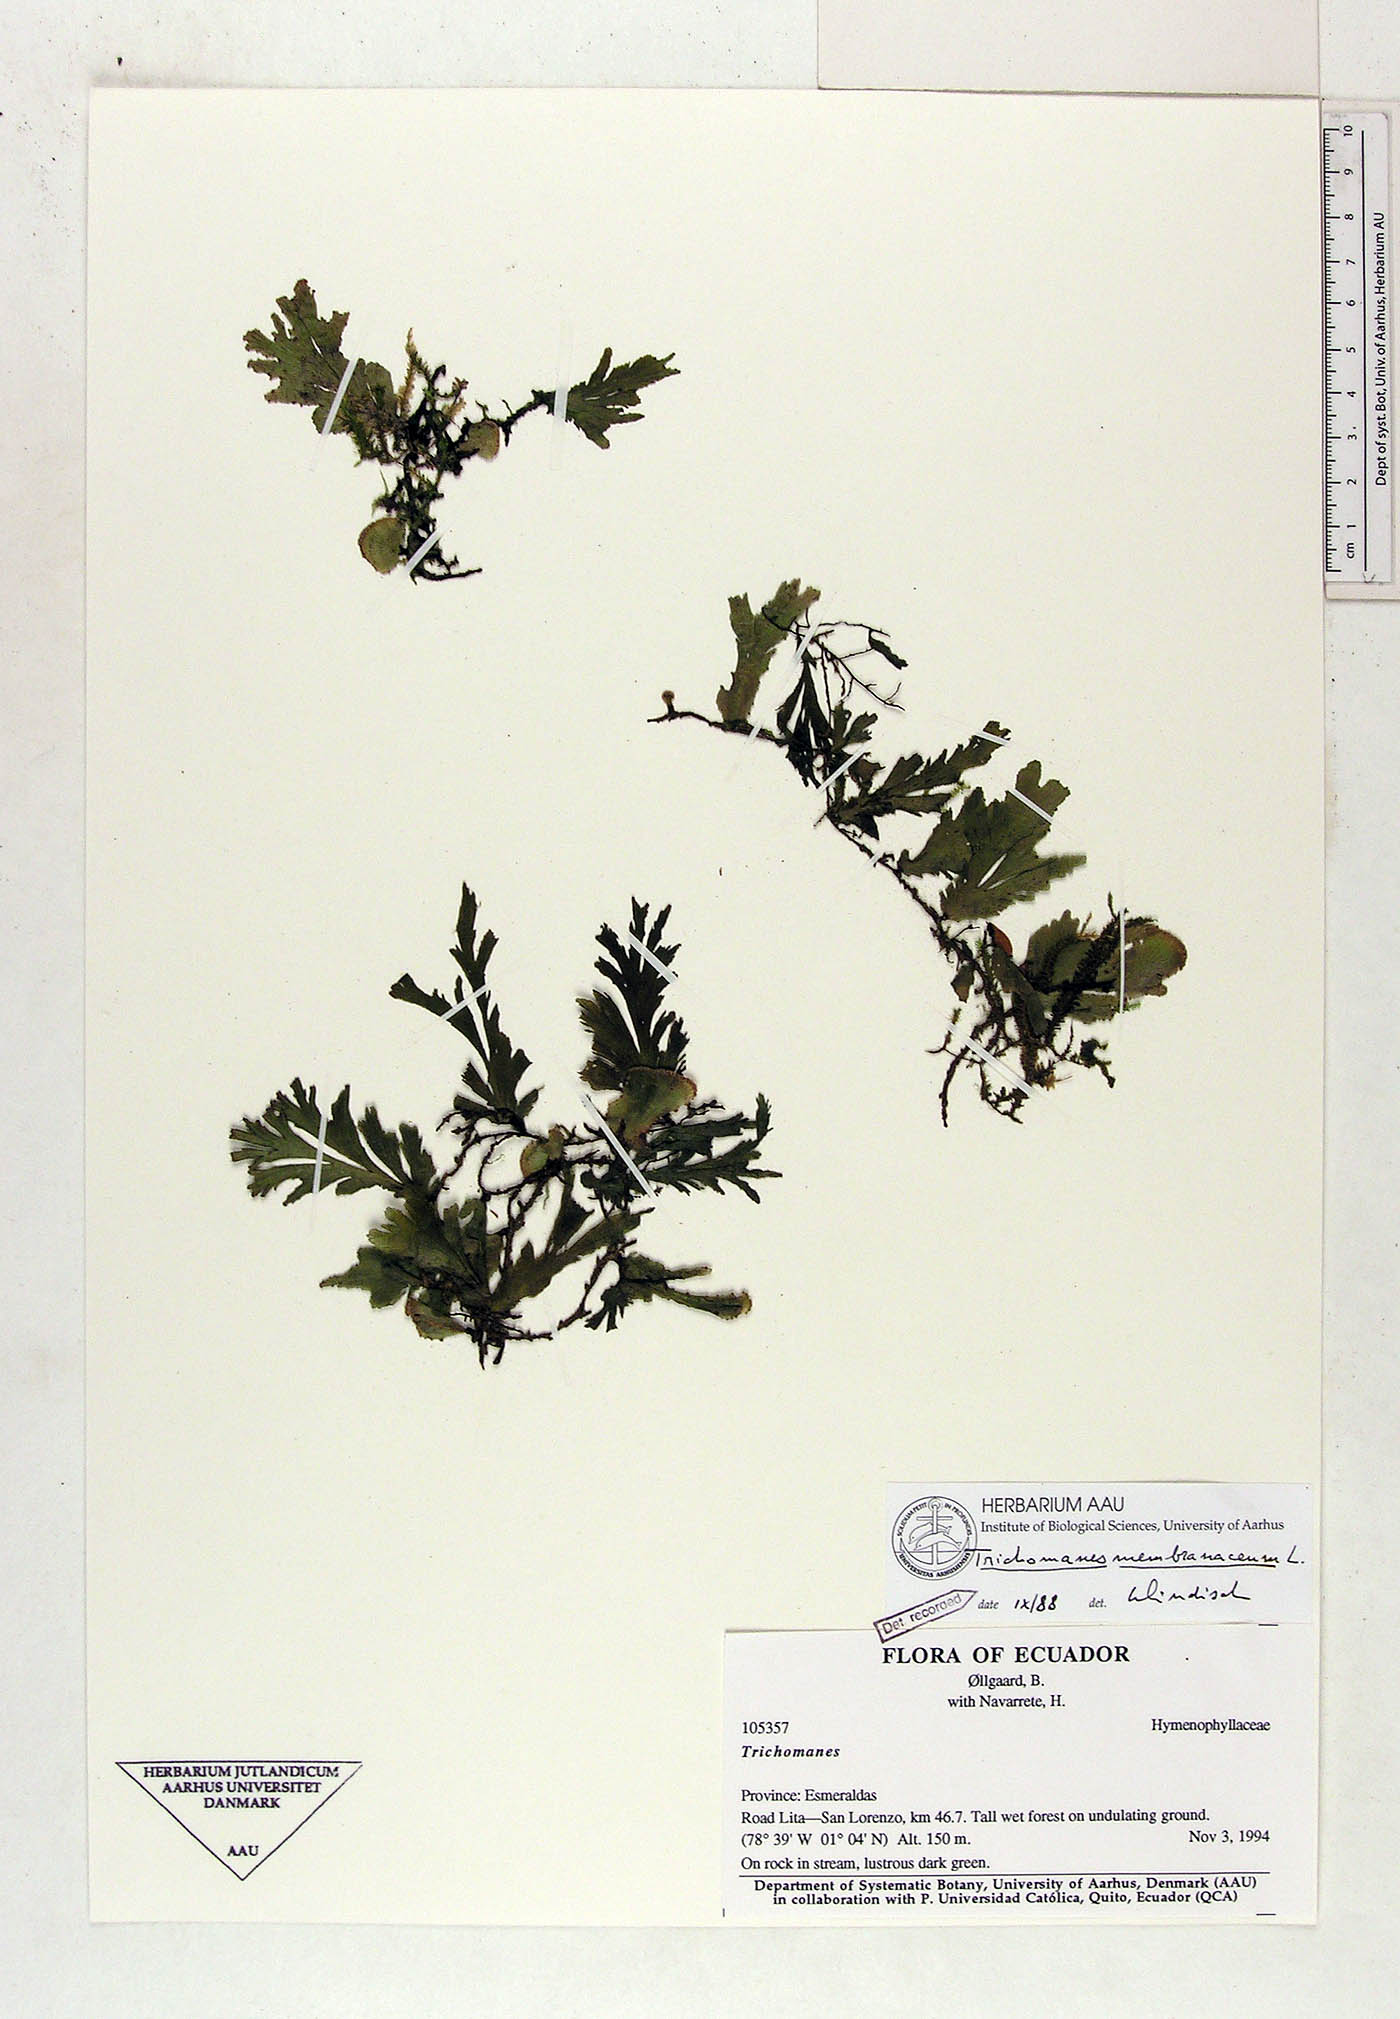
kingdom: Plantae
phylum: Tracheophyta
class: Polypodiopsida
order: Hymenophyllales
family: Hymenophyllaceae
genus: Didymoglossum
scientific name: Didymoglossum membranaceum
